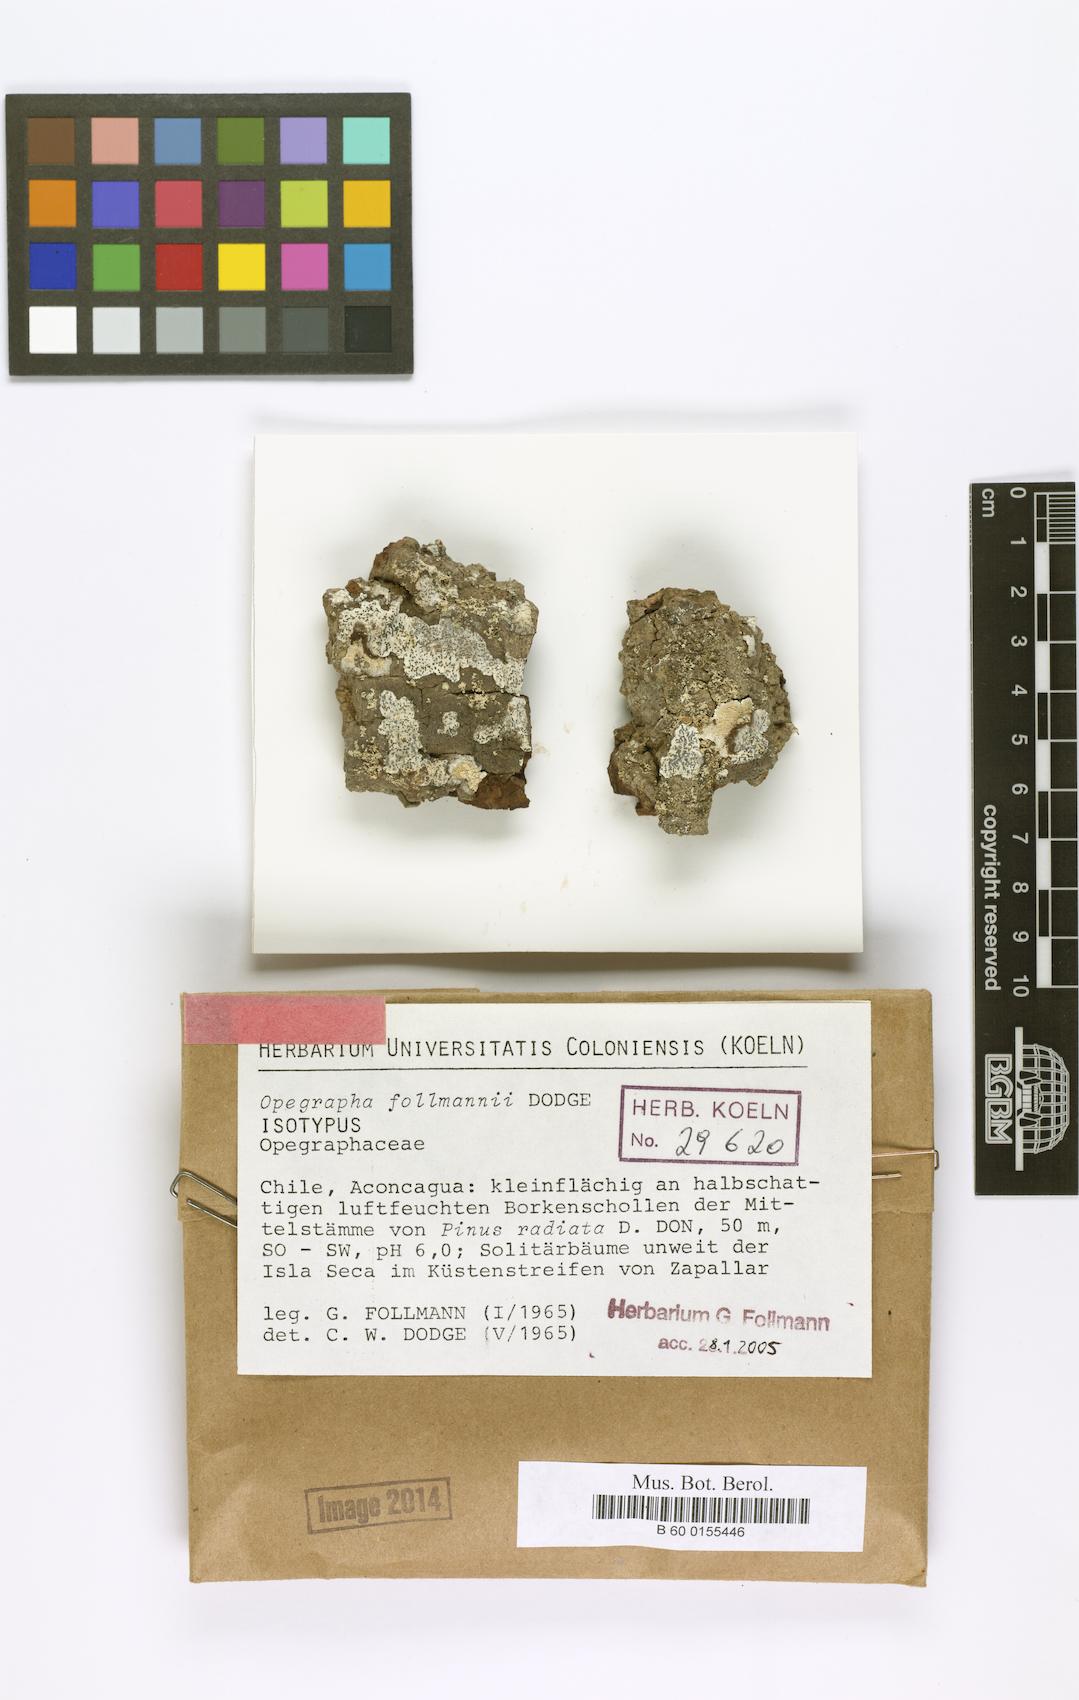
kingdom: Fungi
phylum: Ascomycota
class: Arthoniomycetes
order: Arthoniales
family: Lecanographaceae
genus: Lecanographa
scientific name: Lecanographa follmannii
